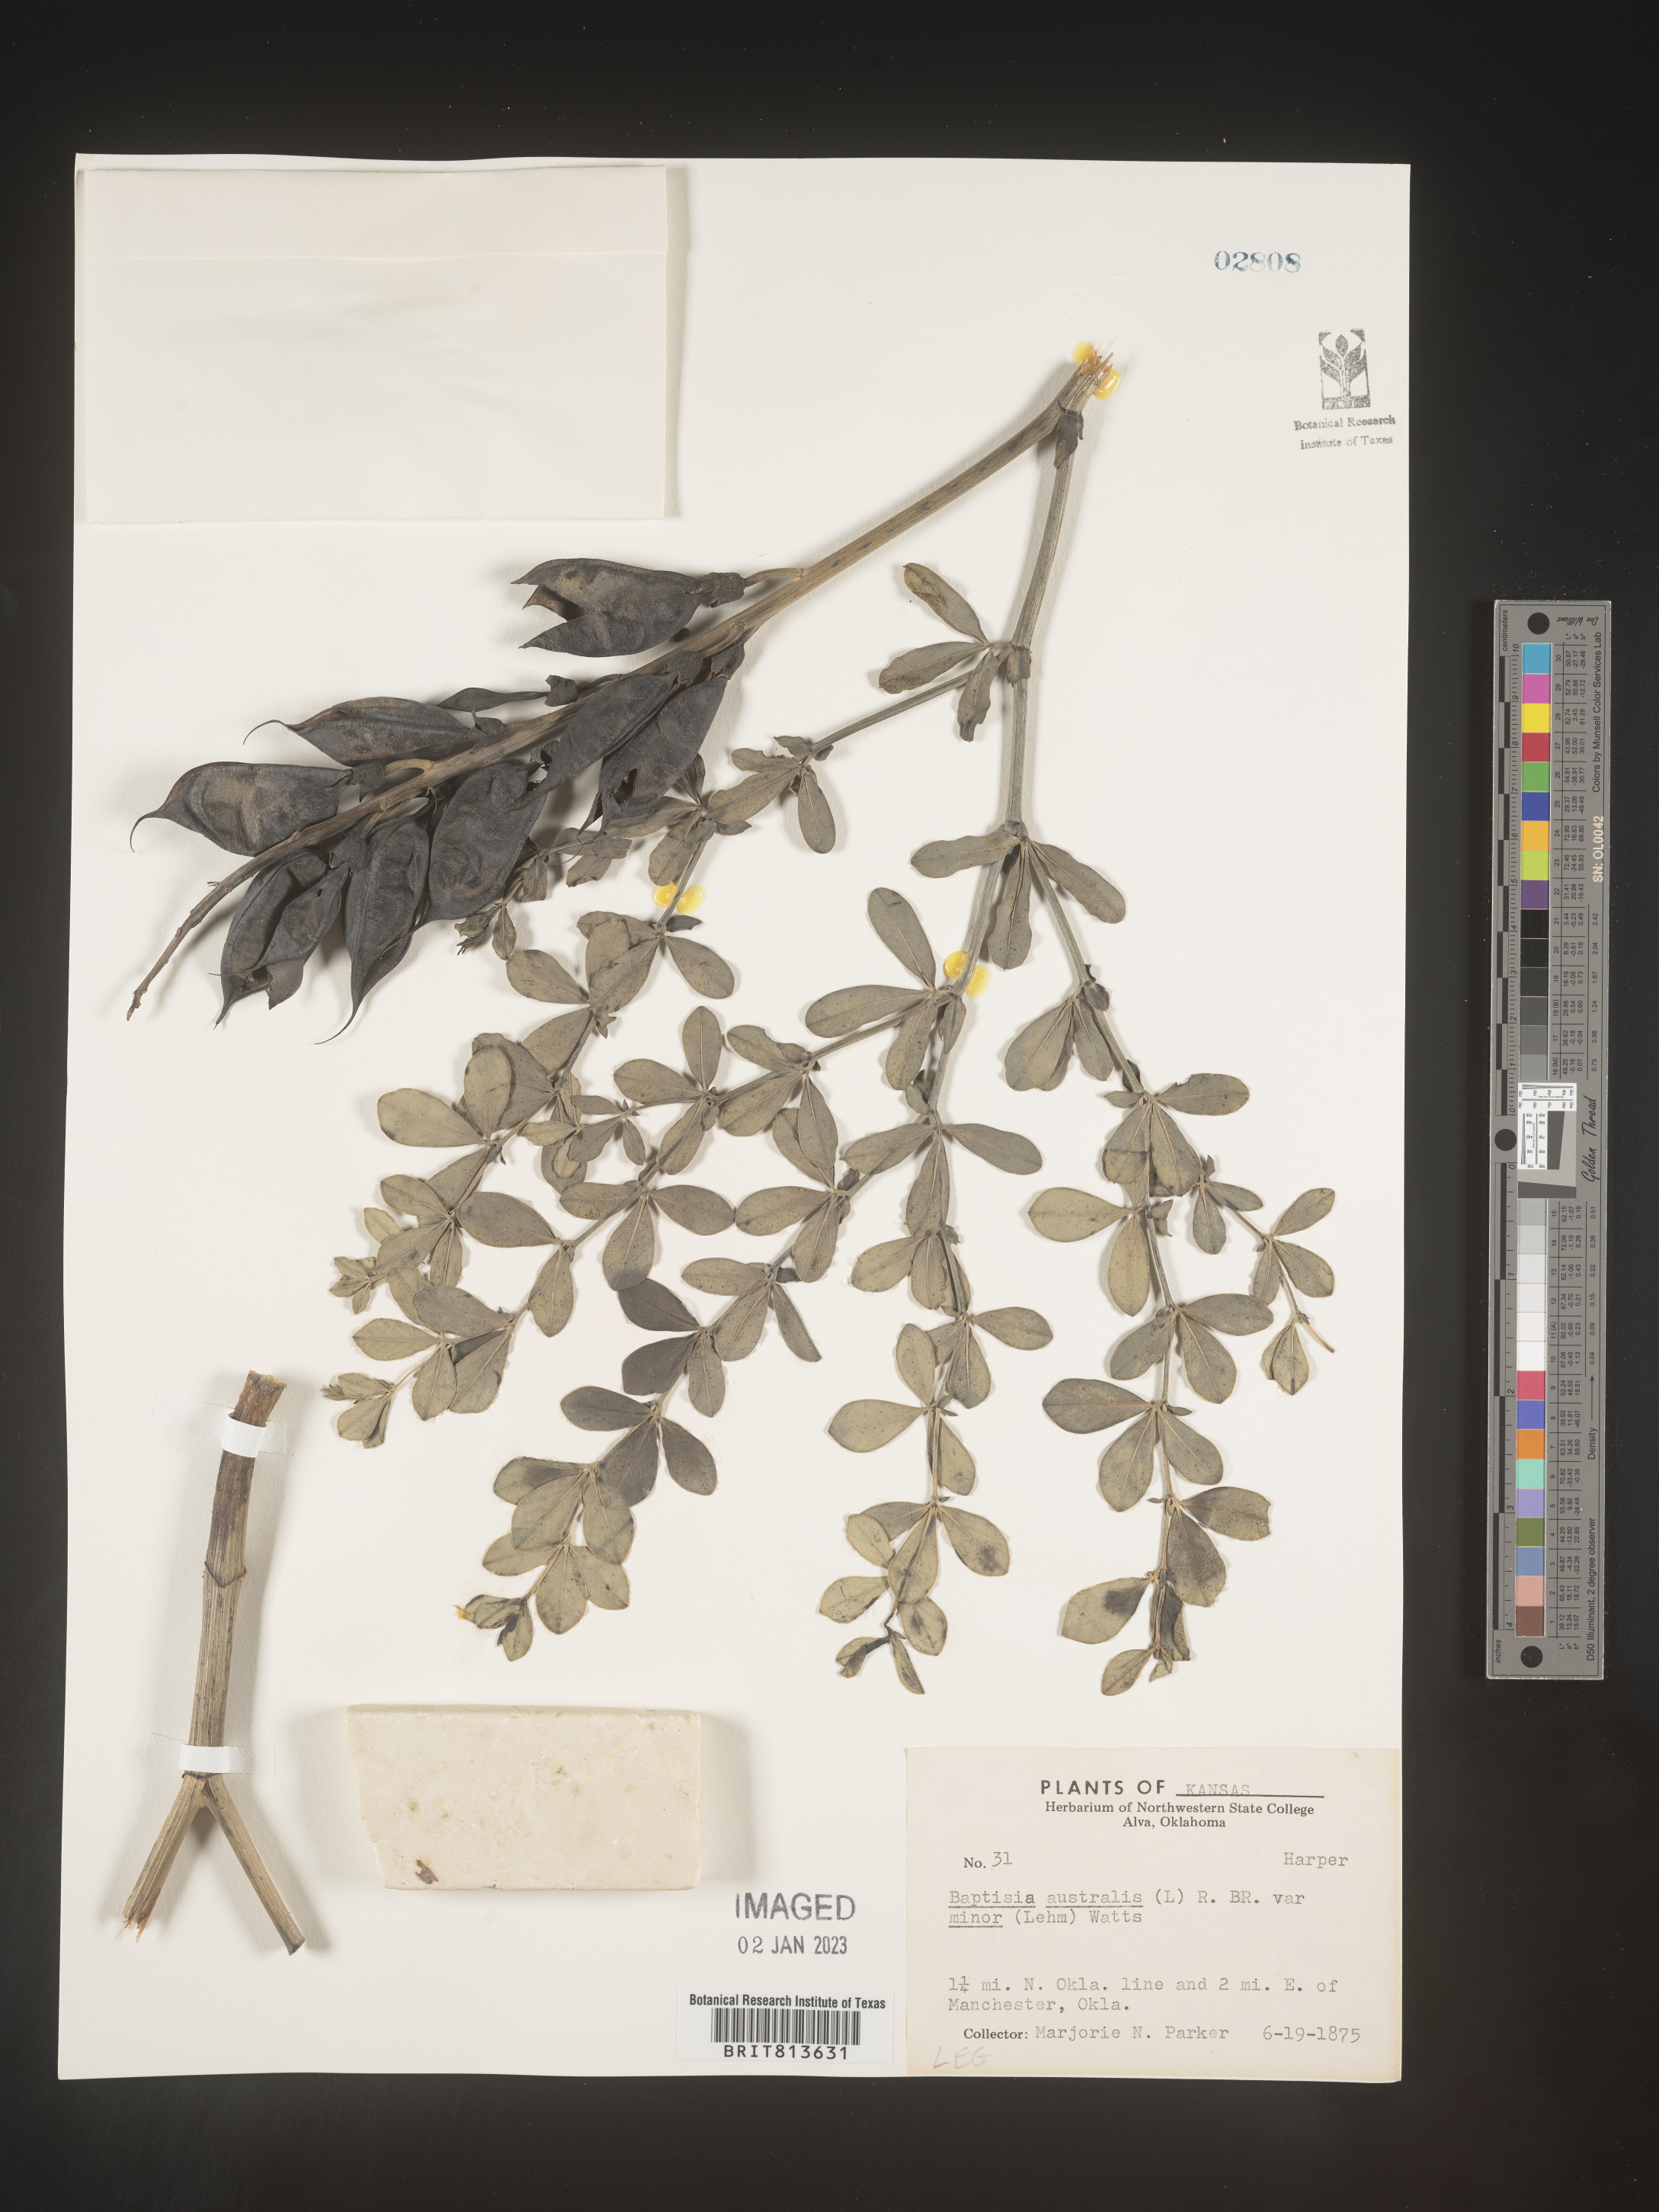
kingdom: Plantae
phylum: Tracheophyta
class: Magnoliopsida
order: Fabales
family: Fabaceae
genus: Baptisia
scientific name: Baptisia australis
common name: Blue false indigo
